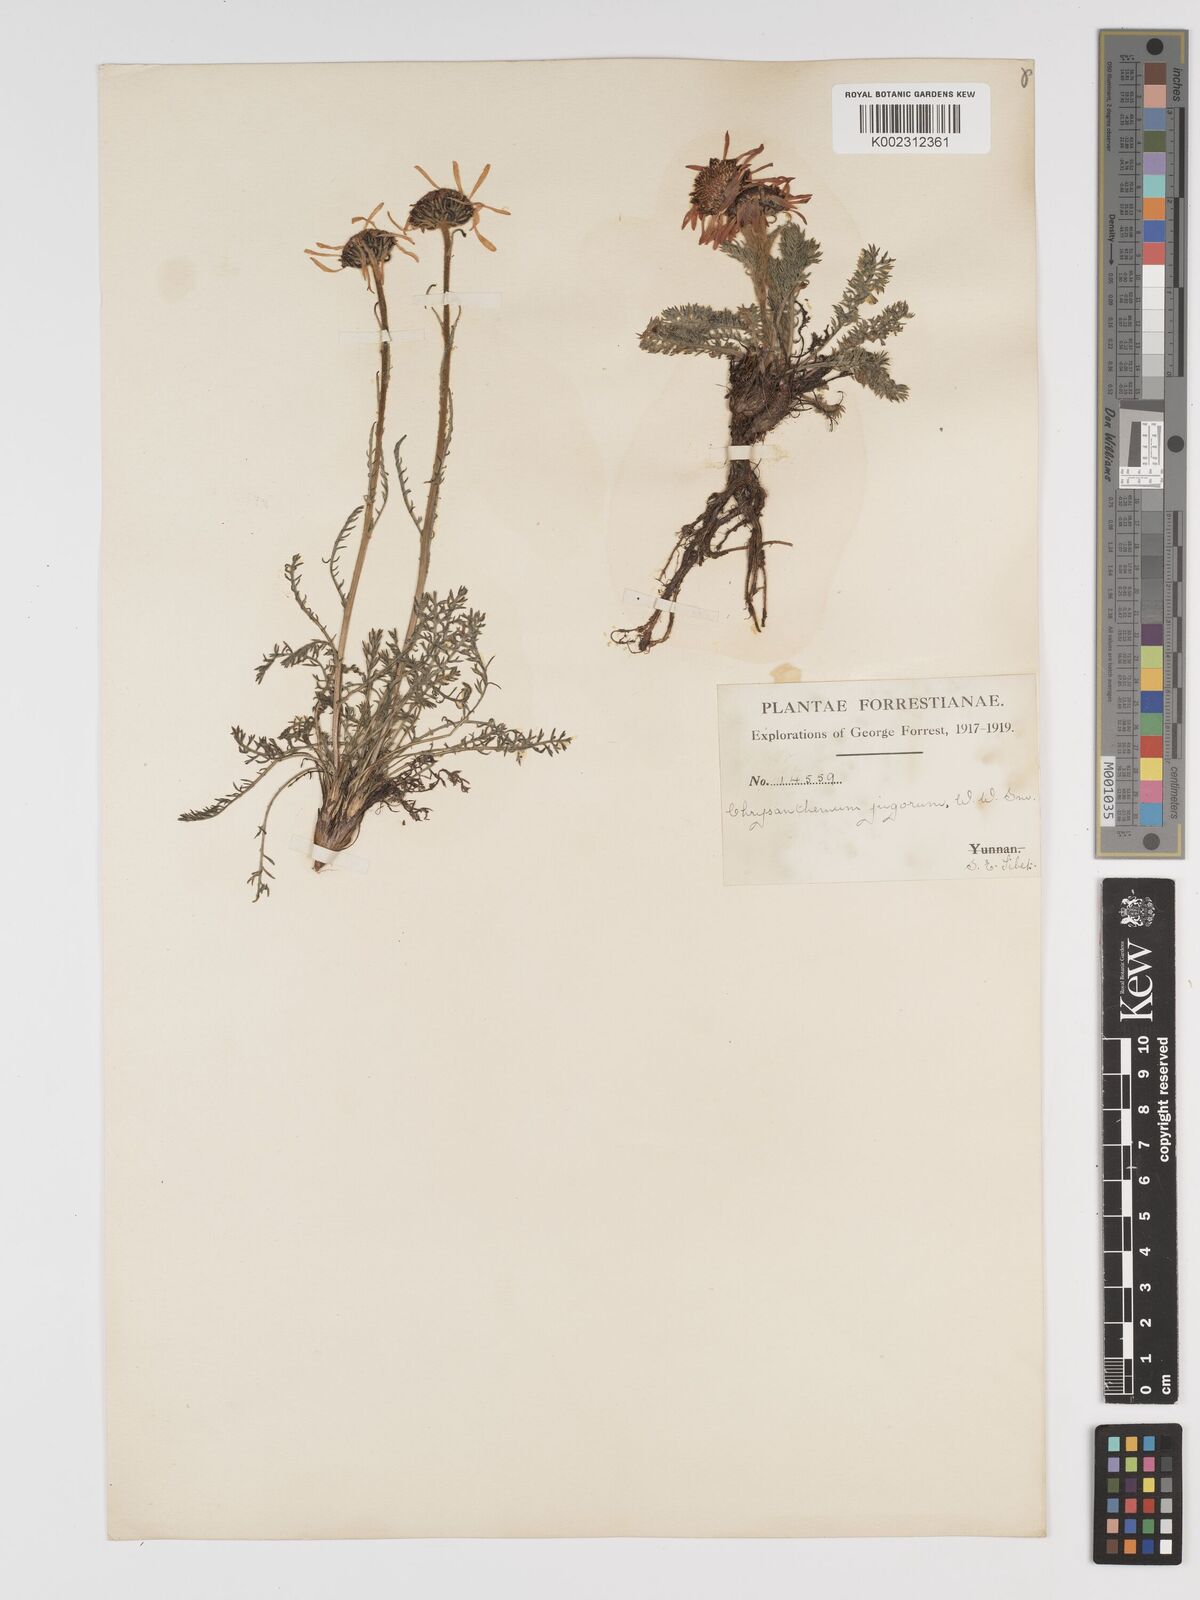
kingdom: Plantae
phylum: Tracheophyta
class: Magnoliopsida
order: Asterales
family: Asteraceae
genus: Tanacetum
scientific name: Tanacetum tatsienense
